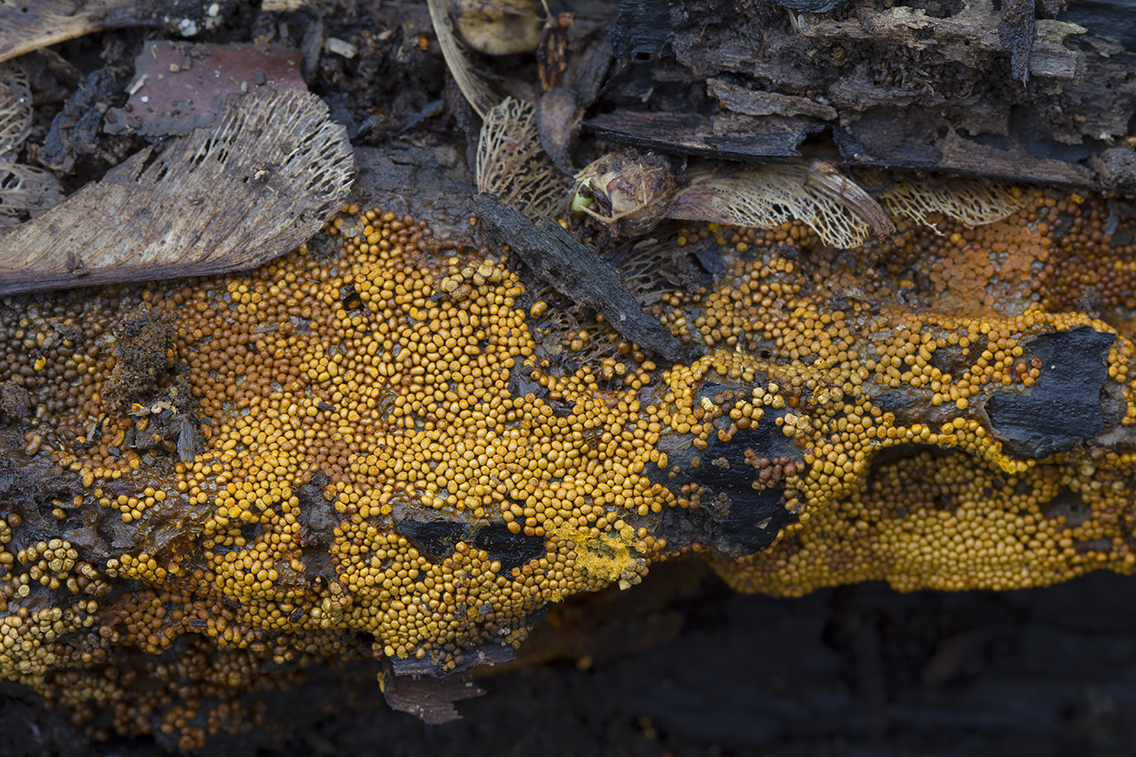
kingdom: Protozoa
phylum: Mycetozoa
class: Myxomycetes
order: Trichiales
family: Trichiaceae
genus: Trichia
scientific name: Trichia scabra
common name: tæppe-hårbold
